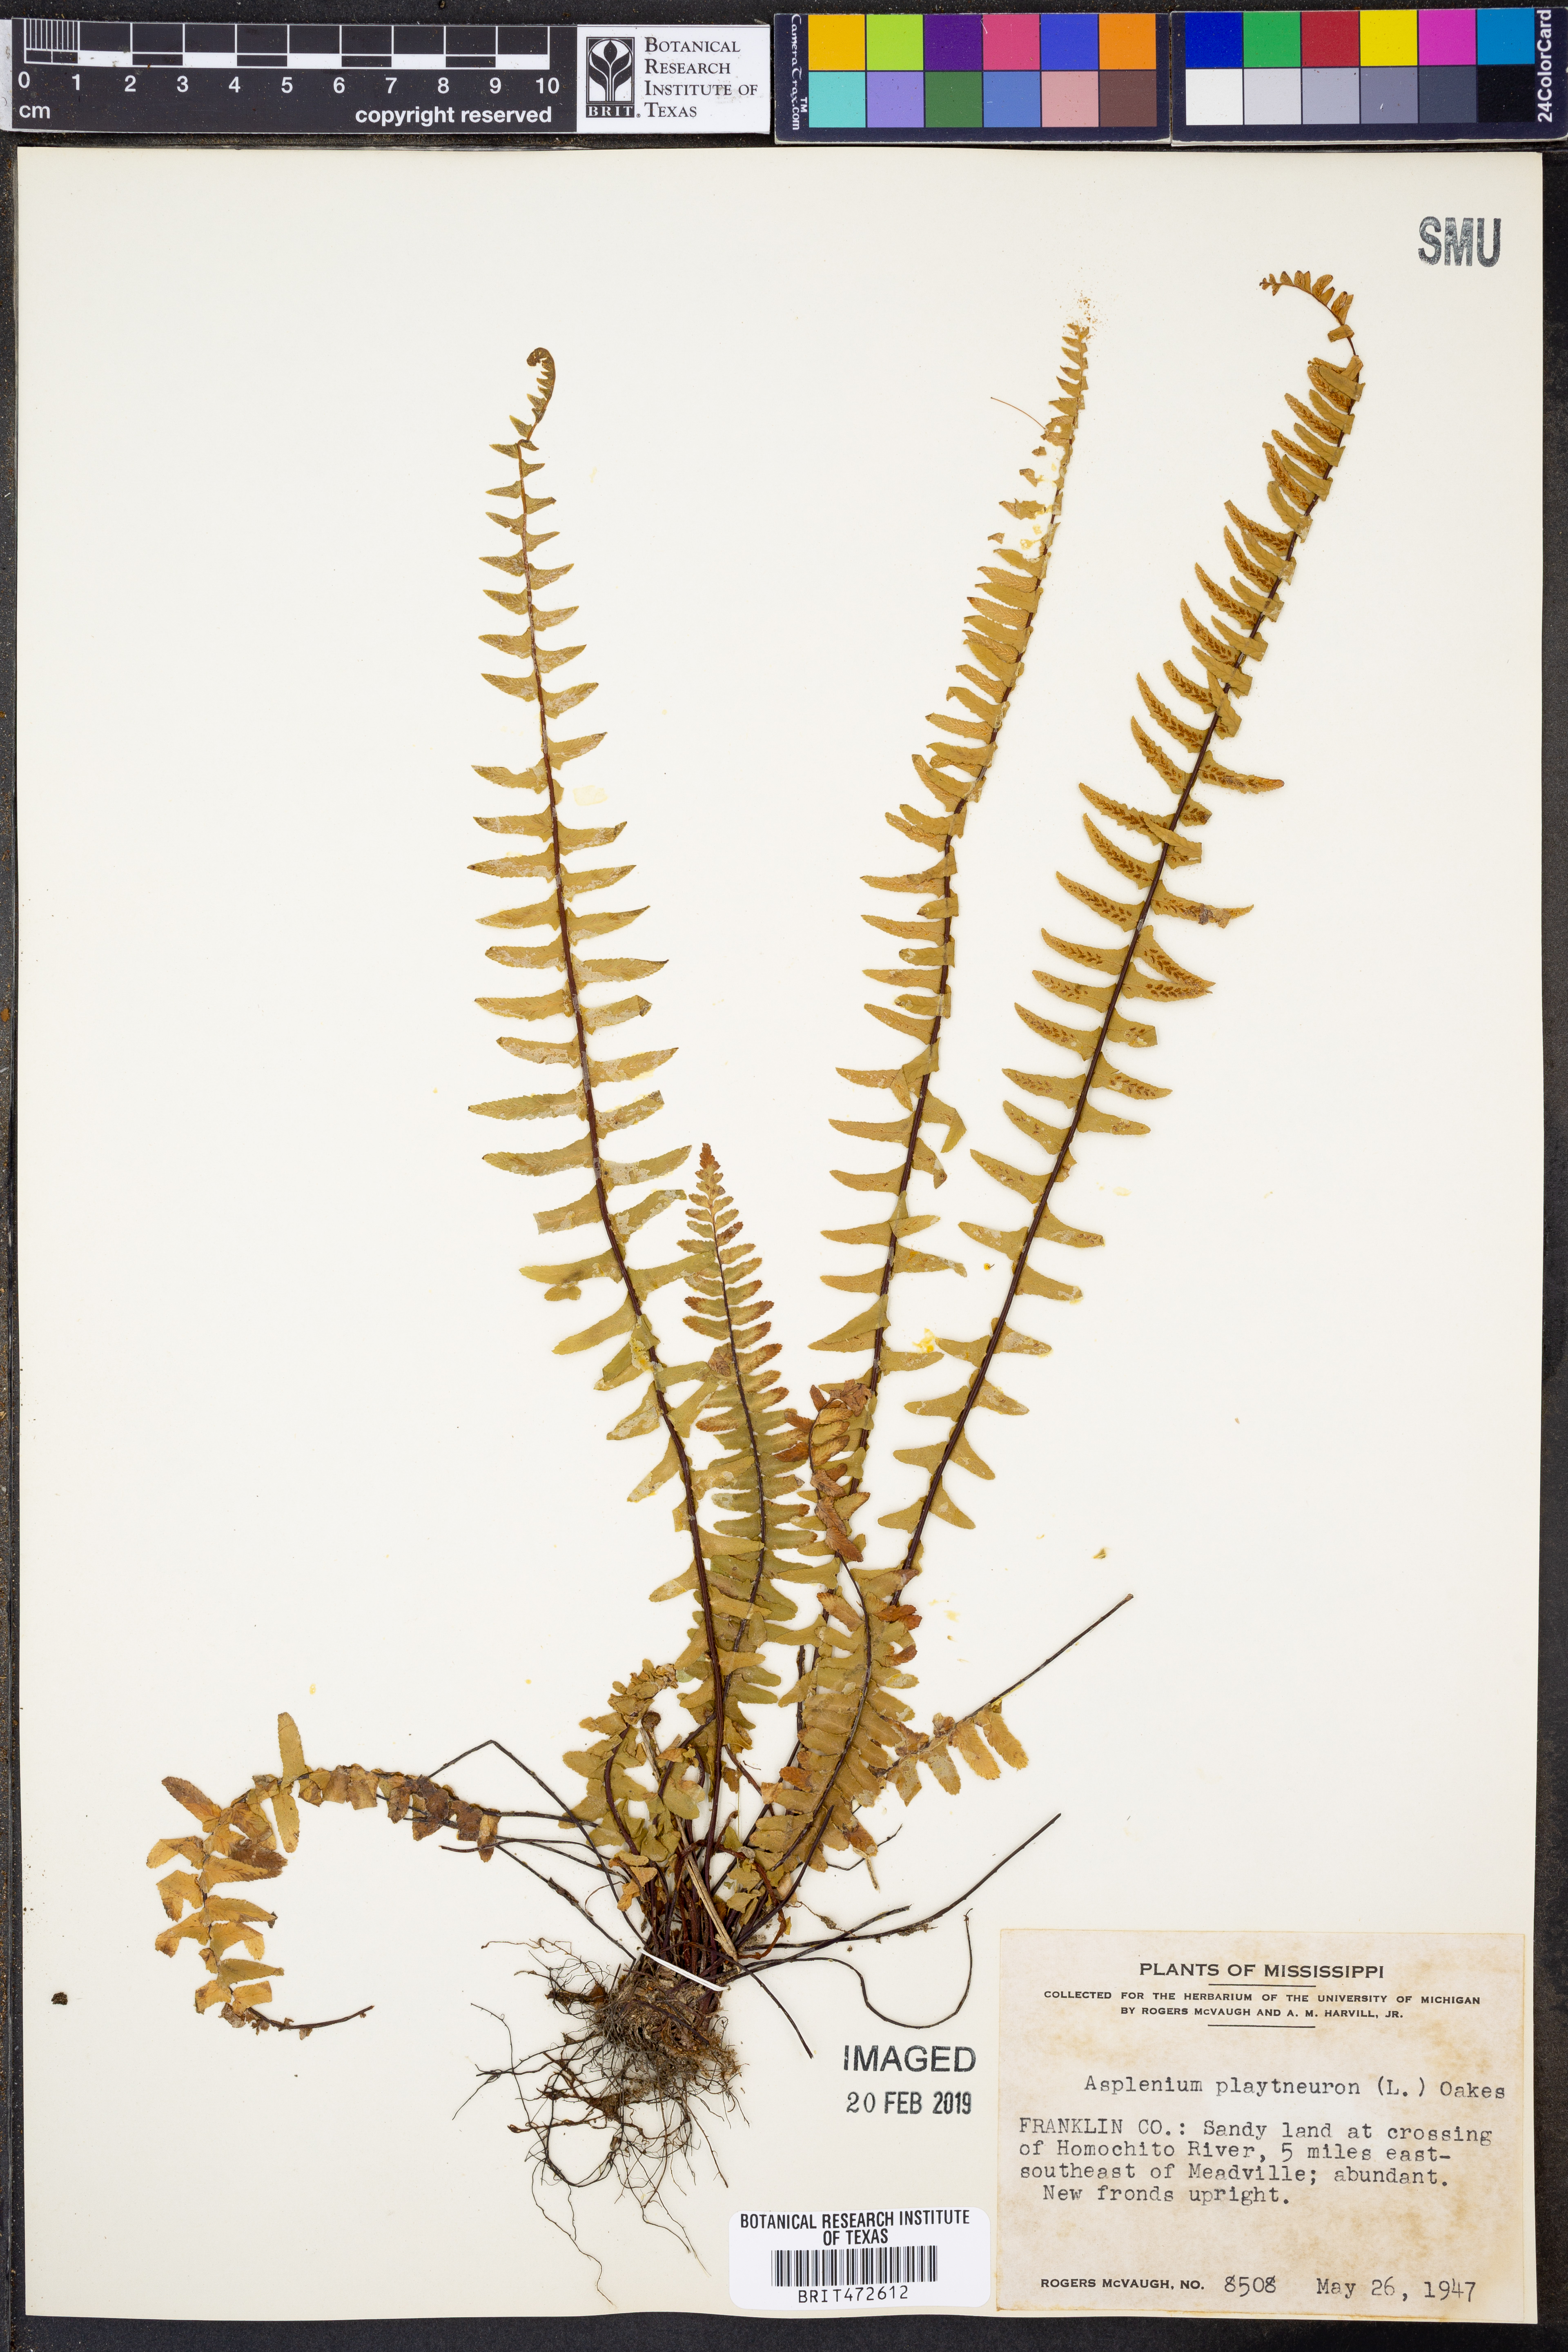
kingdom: Plantae
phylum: Tracheophyta
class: Polypodiopsida
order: Polypodiales
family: Aspleniaceae
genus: Asplenium
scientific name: Asplenium platyneuron
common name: Ebony spleenwort
